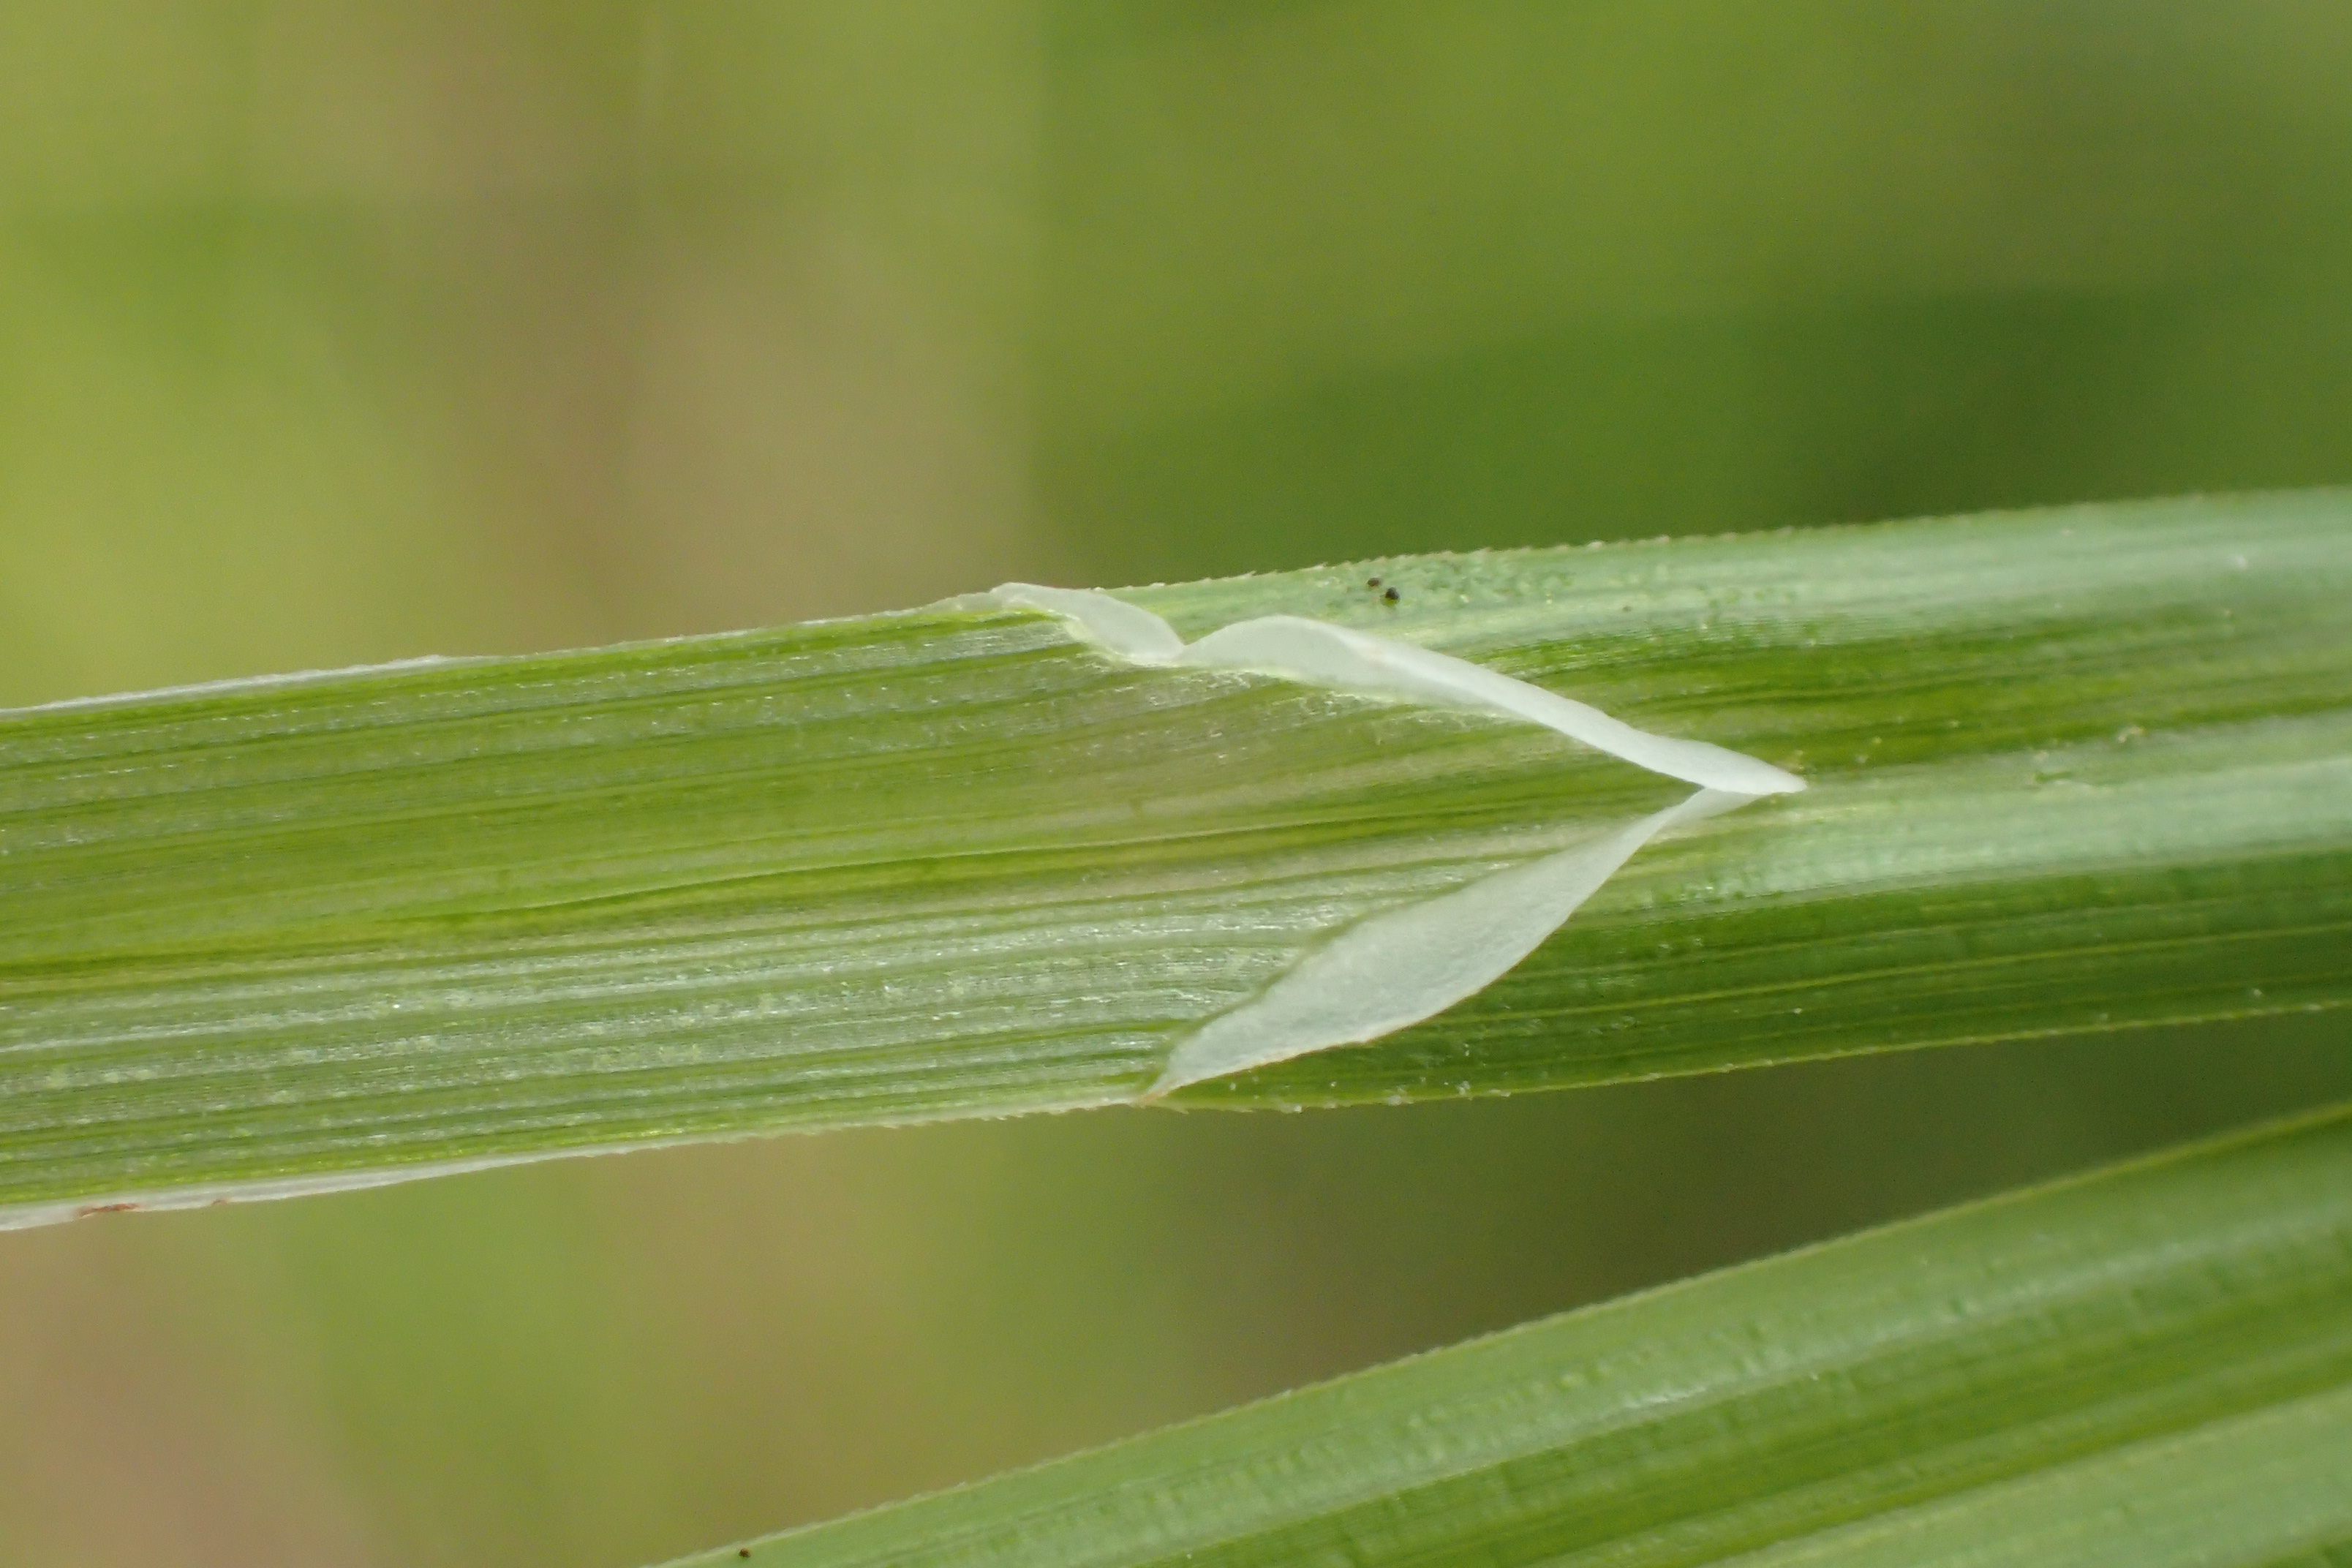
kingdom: Plantae
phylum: Tracheophyta
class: Liliopsida
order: Poales
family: Cyperaceae
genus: Carex
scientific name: Carex cespitosa
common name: Tue-star
